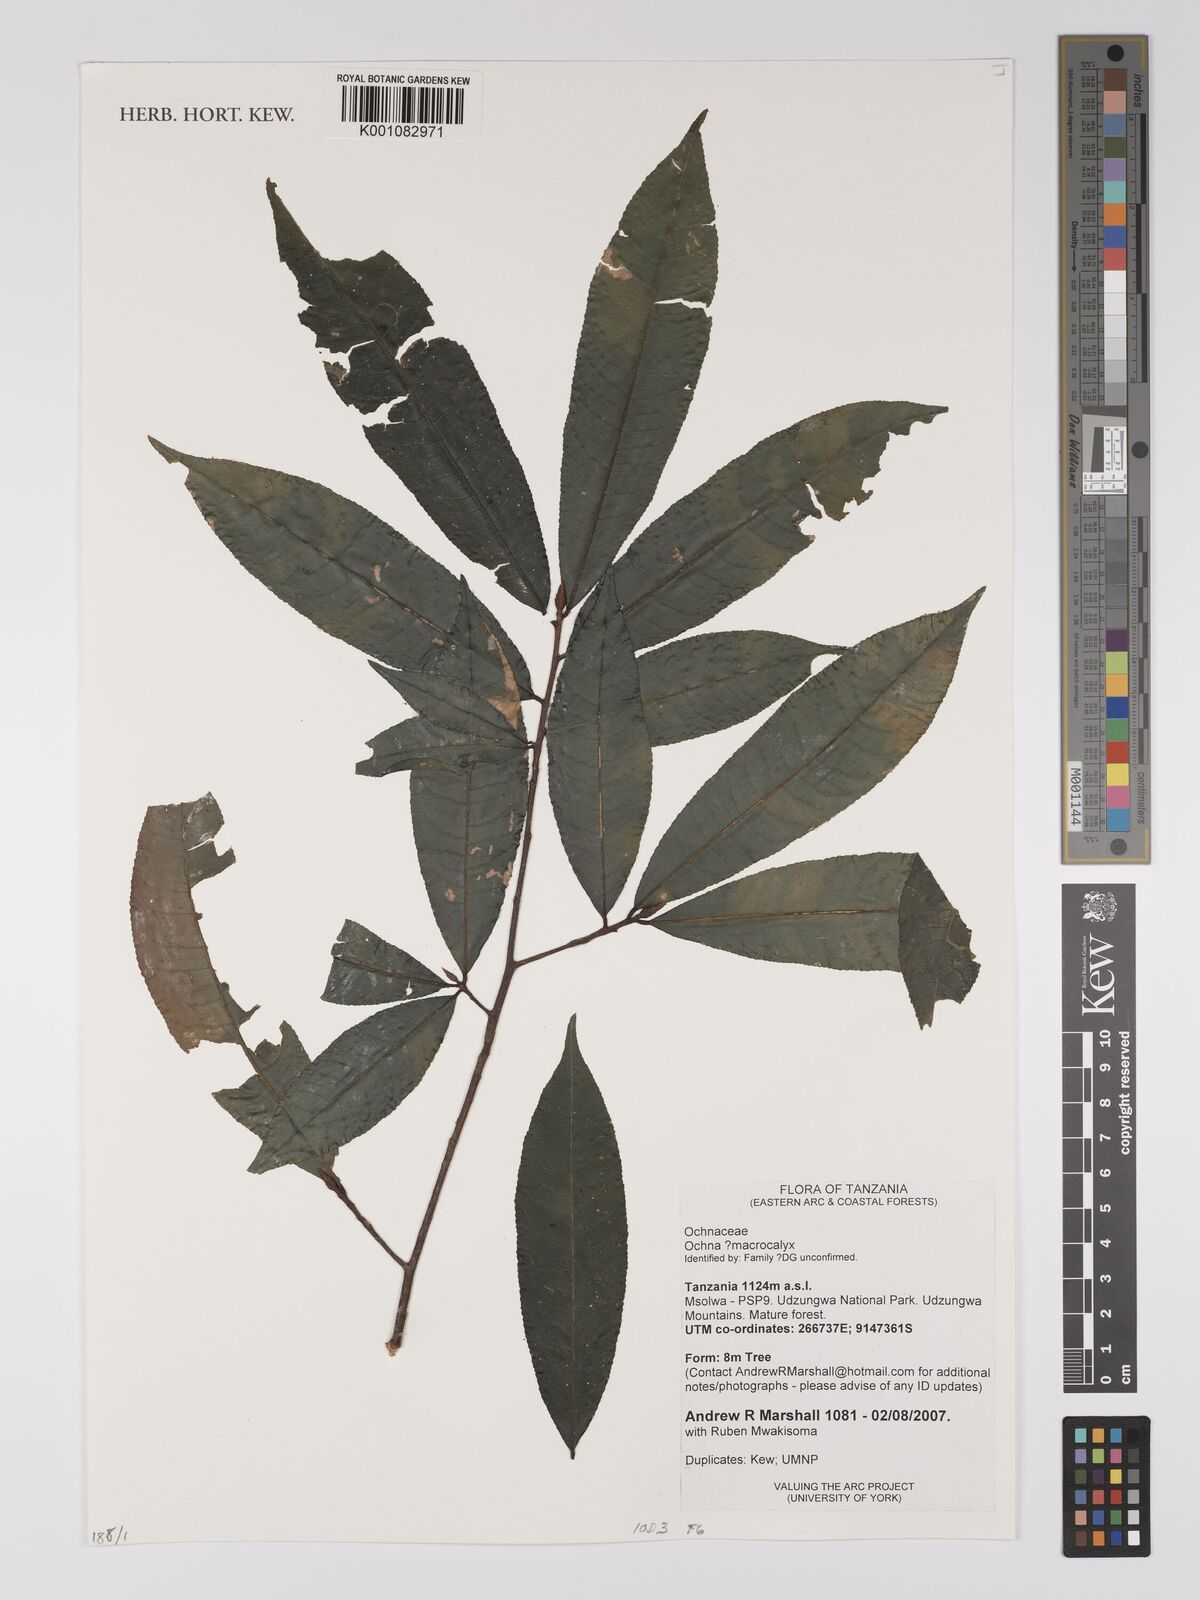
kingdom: Plantae
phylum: Tracheophyta
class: Magnoliopsida
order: Malpighiales
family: Ochnaceae
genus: Ochna
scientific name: Ochna macrocalyx
